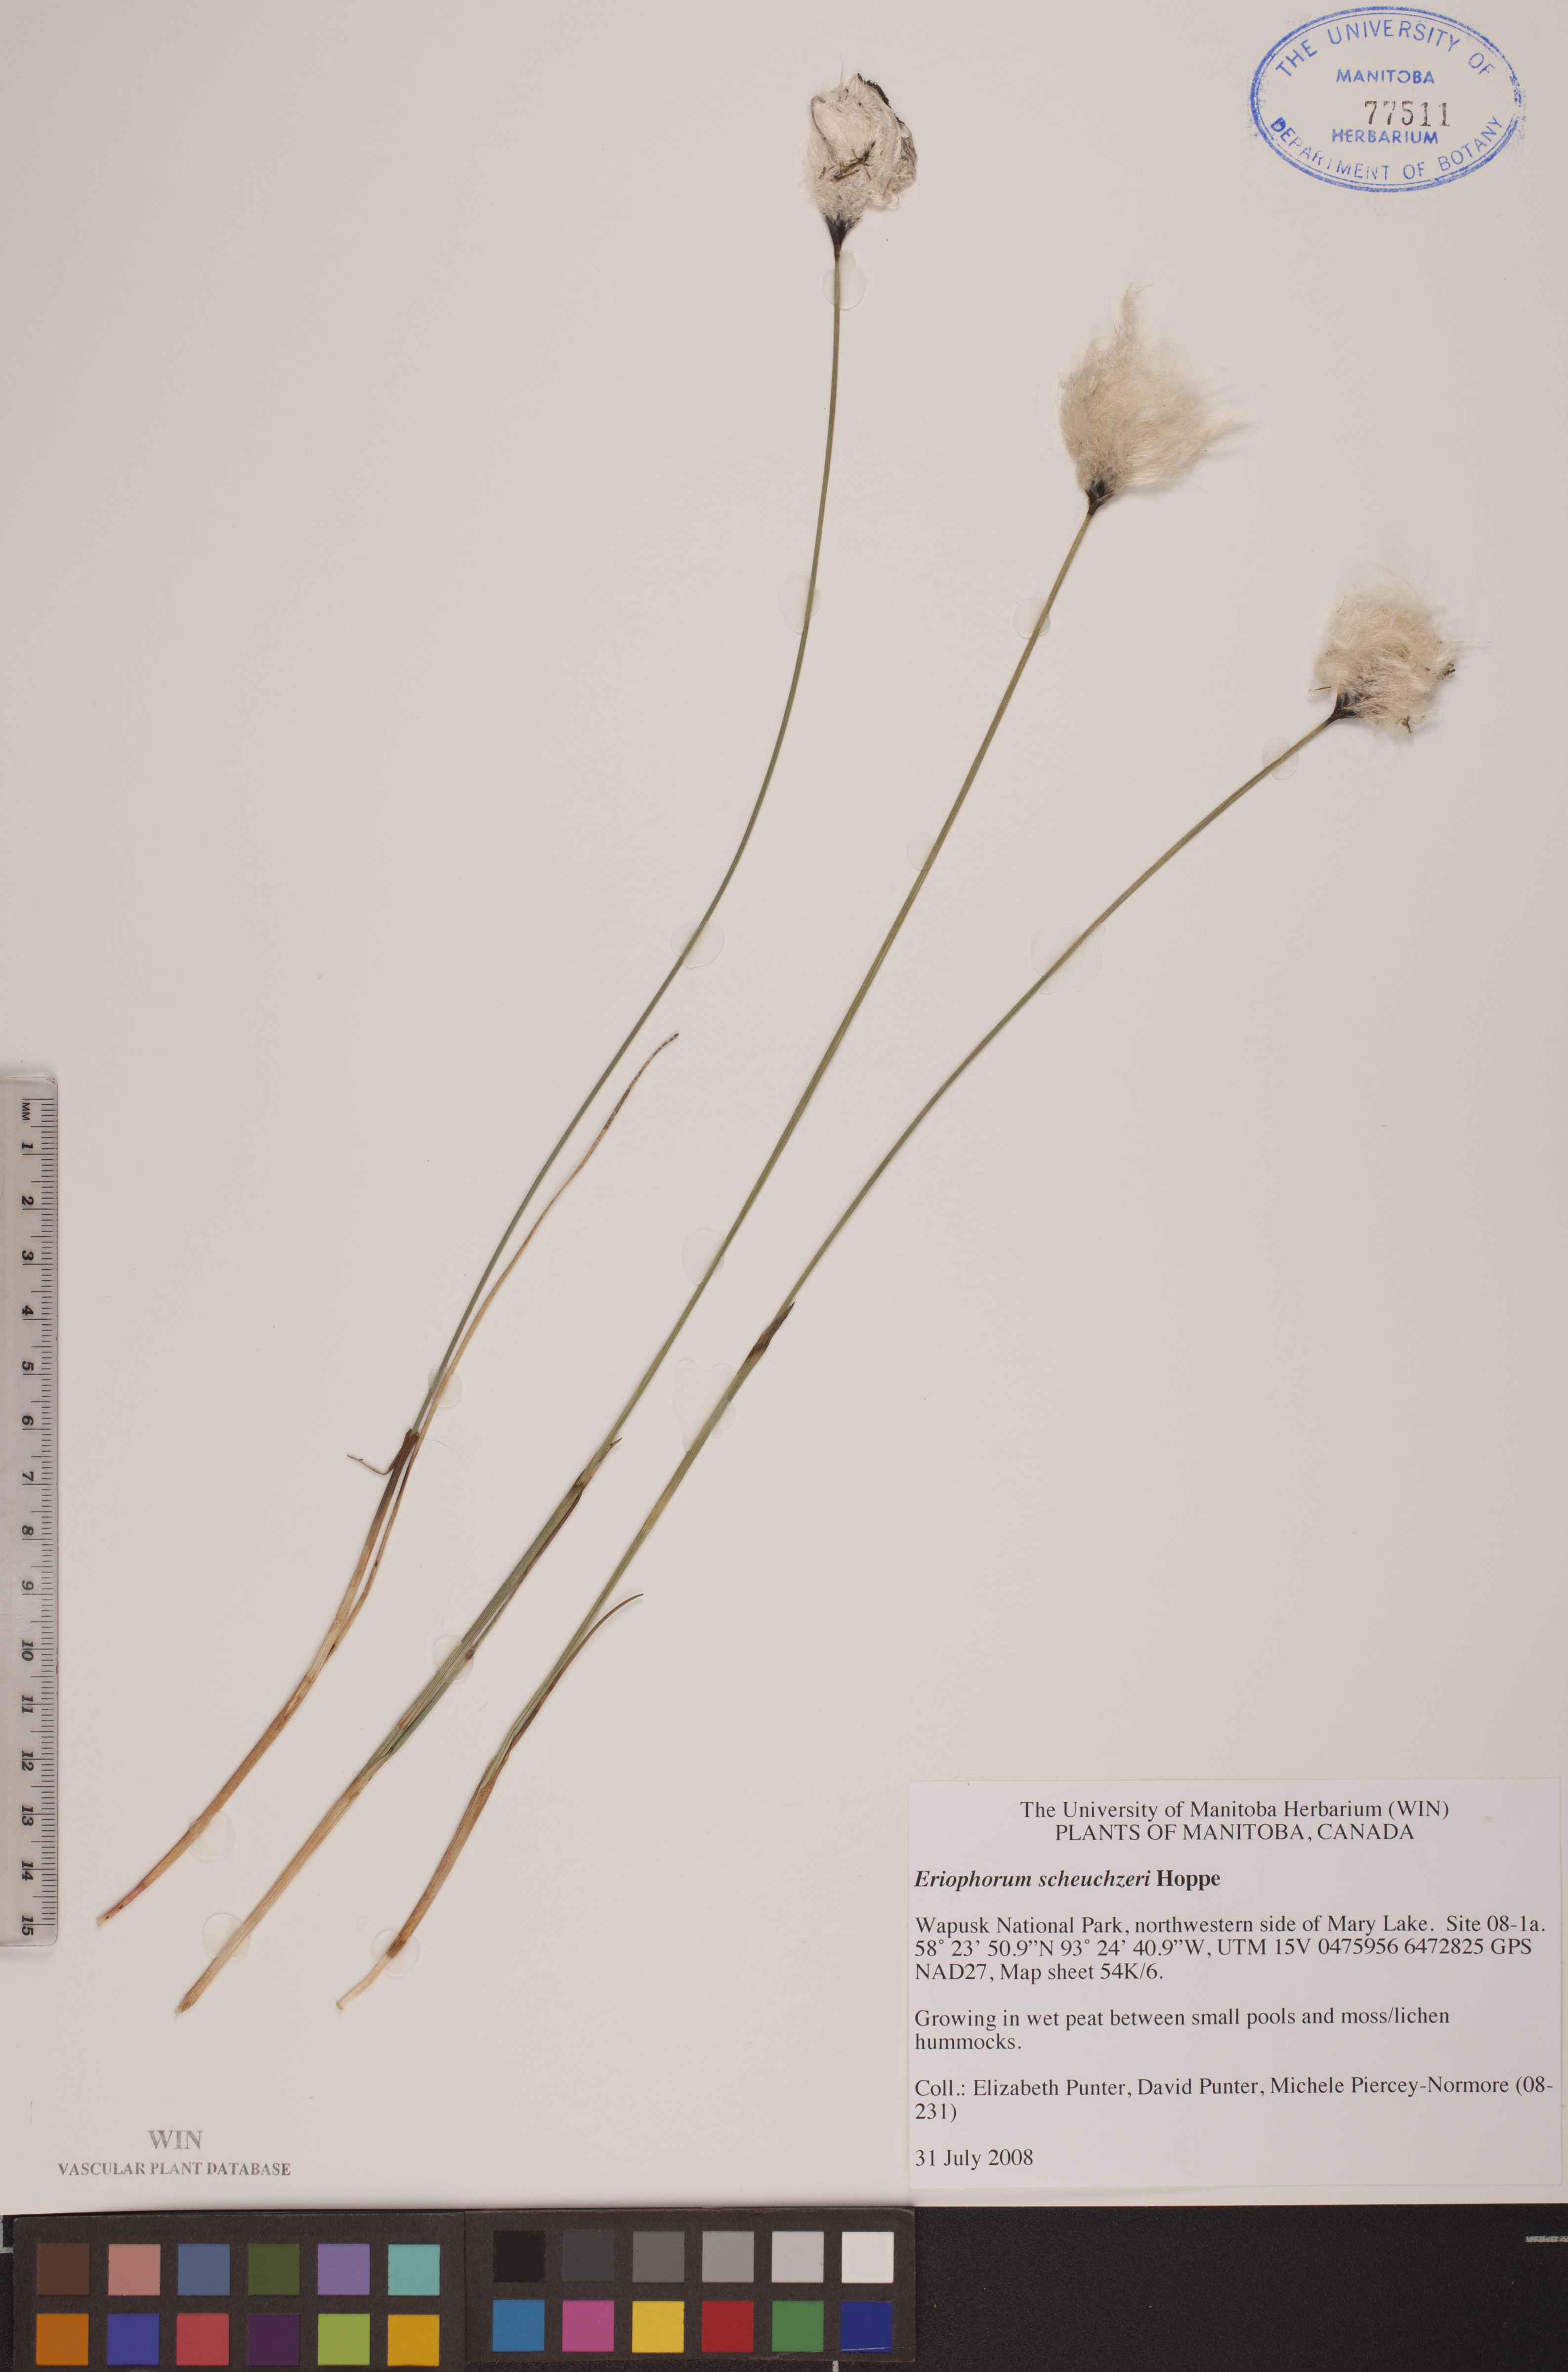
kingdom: Plantae
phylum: Tracheophyta
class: Liliopsida
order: Poales
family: Cyperaceae
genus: Eriophorum
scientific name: Eriophorum scheuchzeri
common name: Scheuchzer's cottongrass
